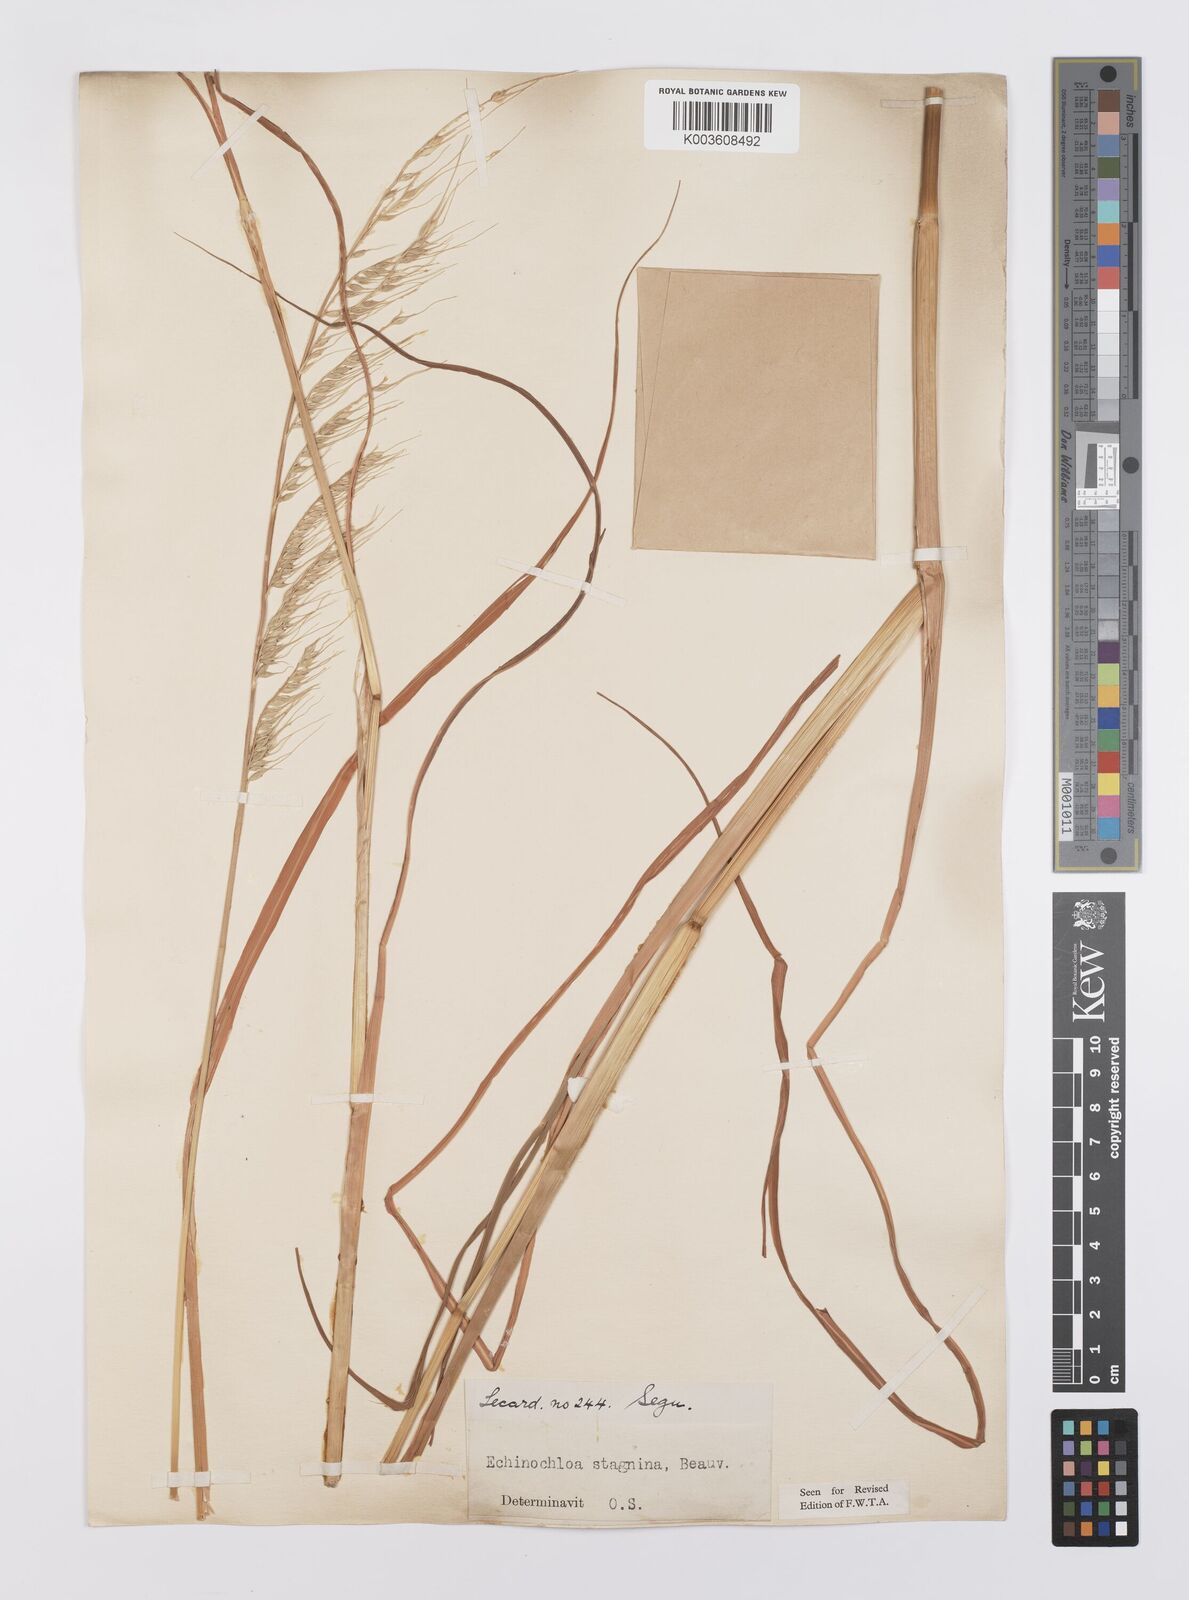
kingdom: Plantae
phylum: Tracheophyta
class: Liliopsida
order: Poales
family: Poaceae
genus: Echinochloa
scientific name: Echinochloa stagnina
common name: Burgu grass
